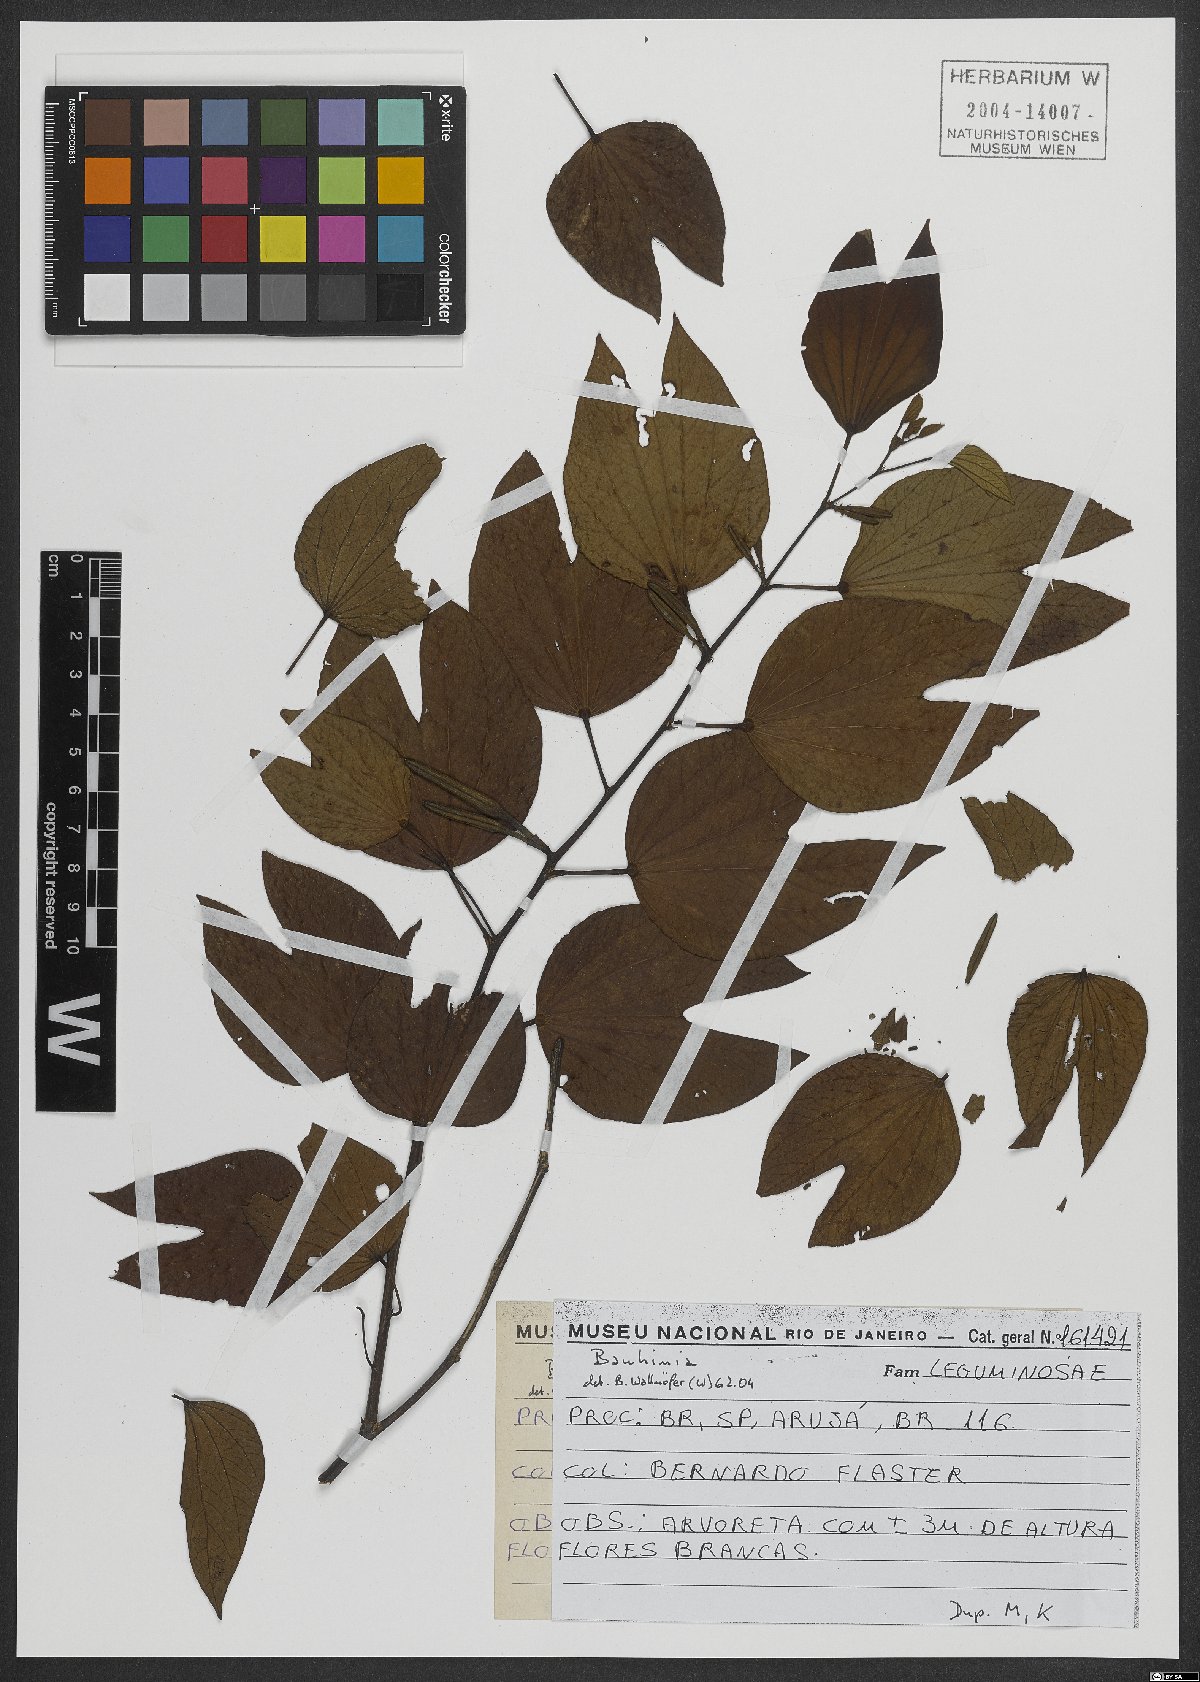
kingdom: Plantae
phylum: Tracheophyta
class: Magnoliopsida
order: Fabales
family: Fabaceae
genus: Bauhinia
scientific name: Bauhinia
